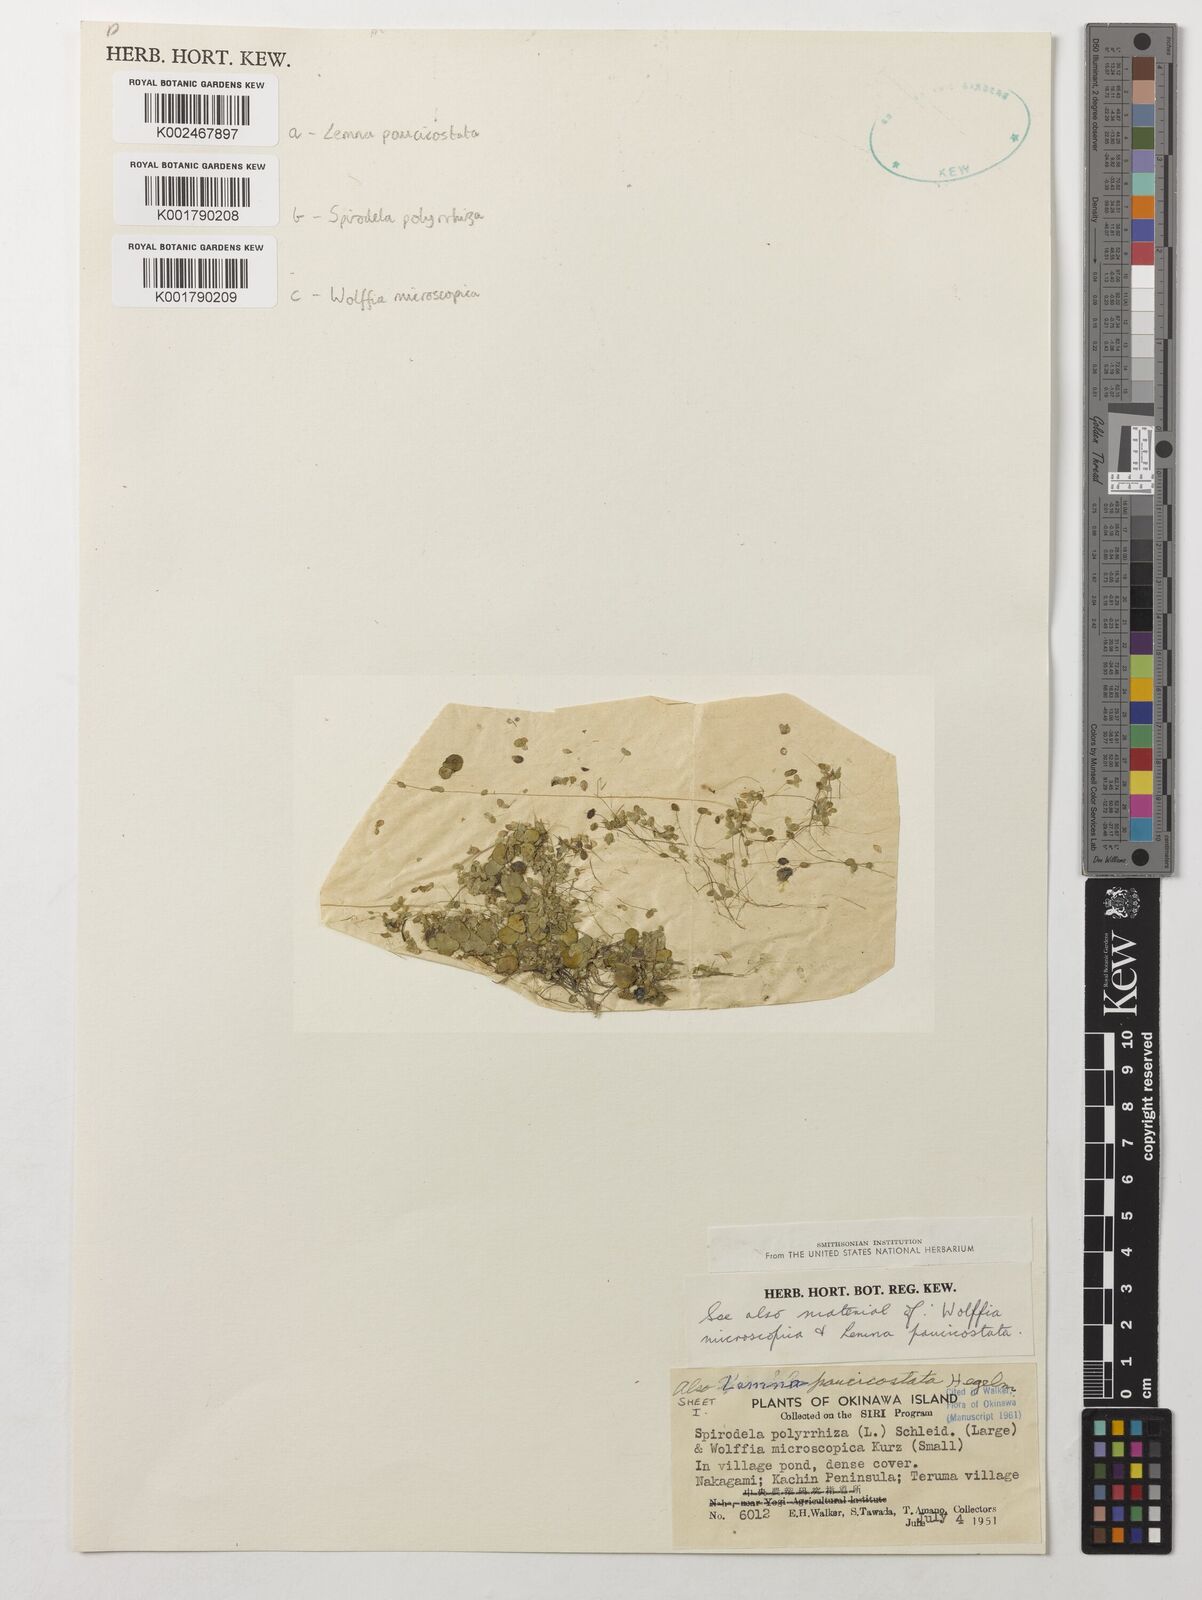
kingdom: Plantae
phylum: Tracheophyta
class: Liliopsida
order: Alismatales
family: Araceae
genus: Spirodela
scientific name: Spirodela polyrhiza
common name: Great duckweed
